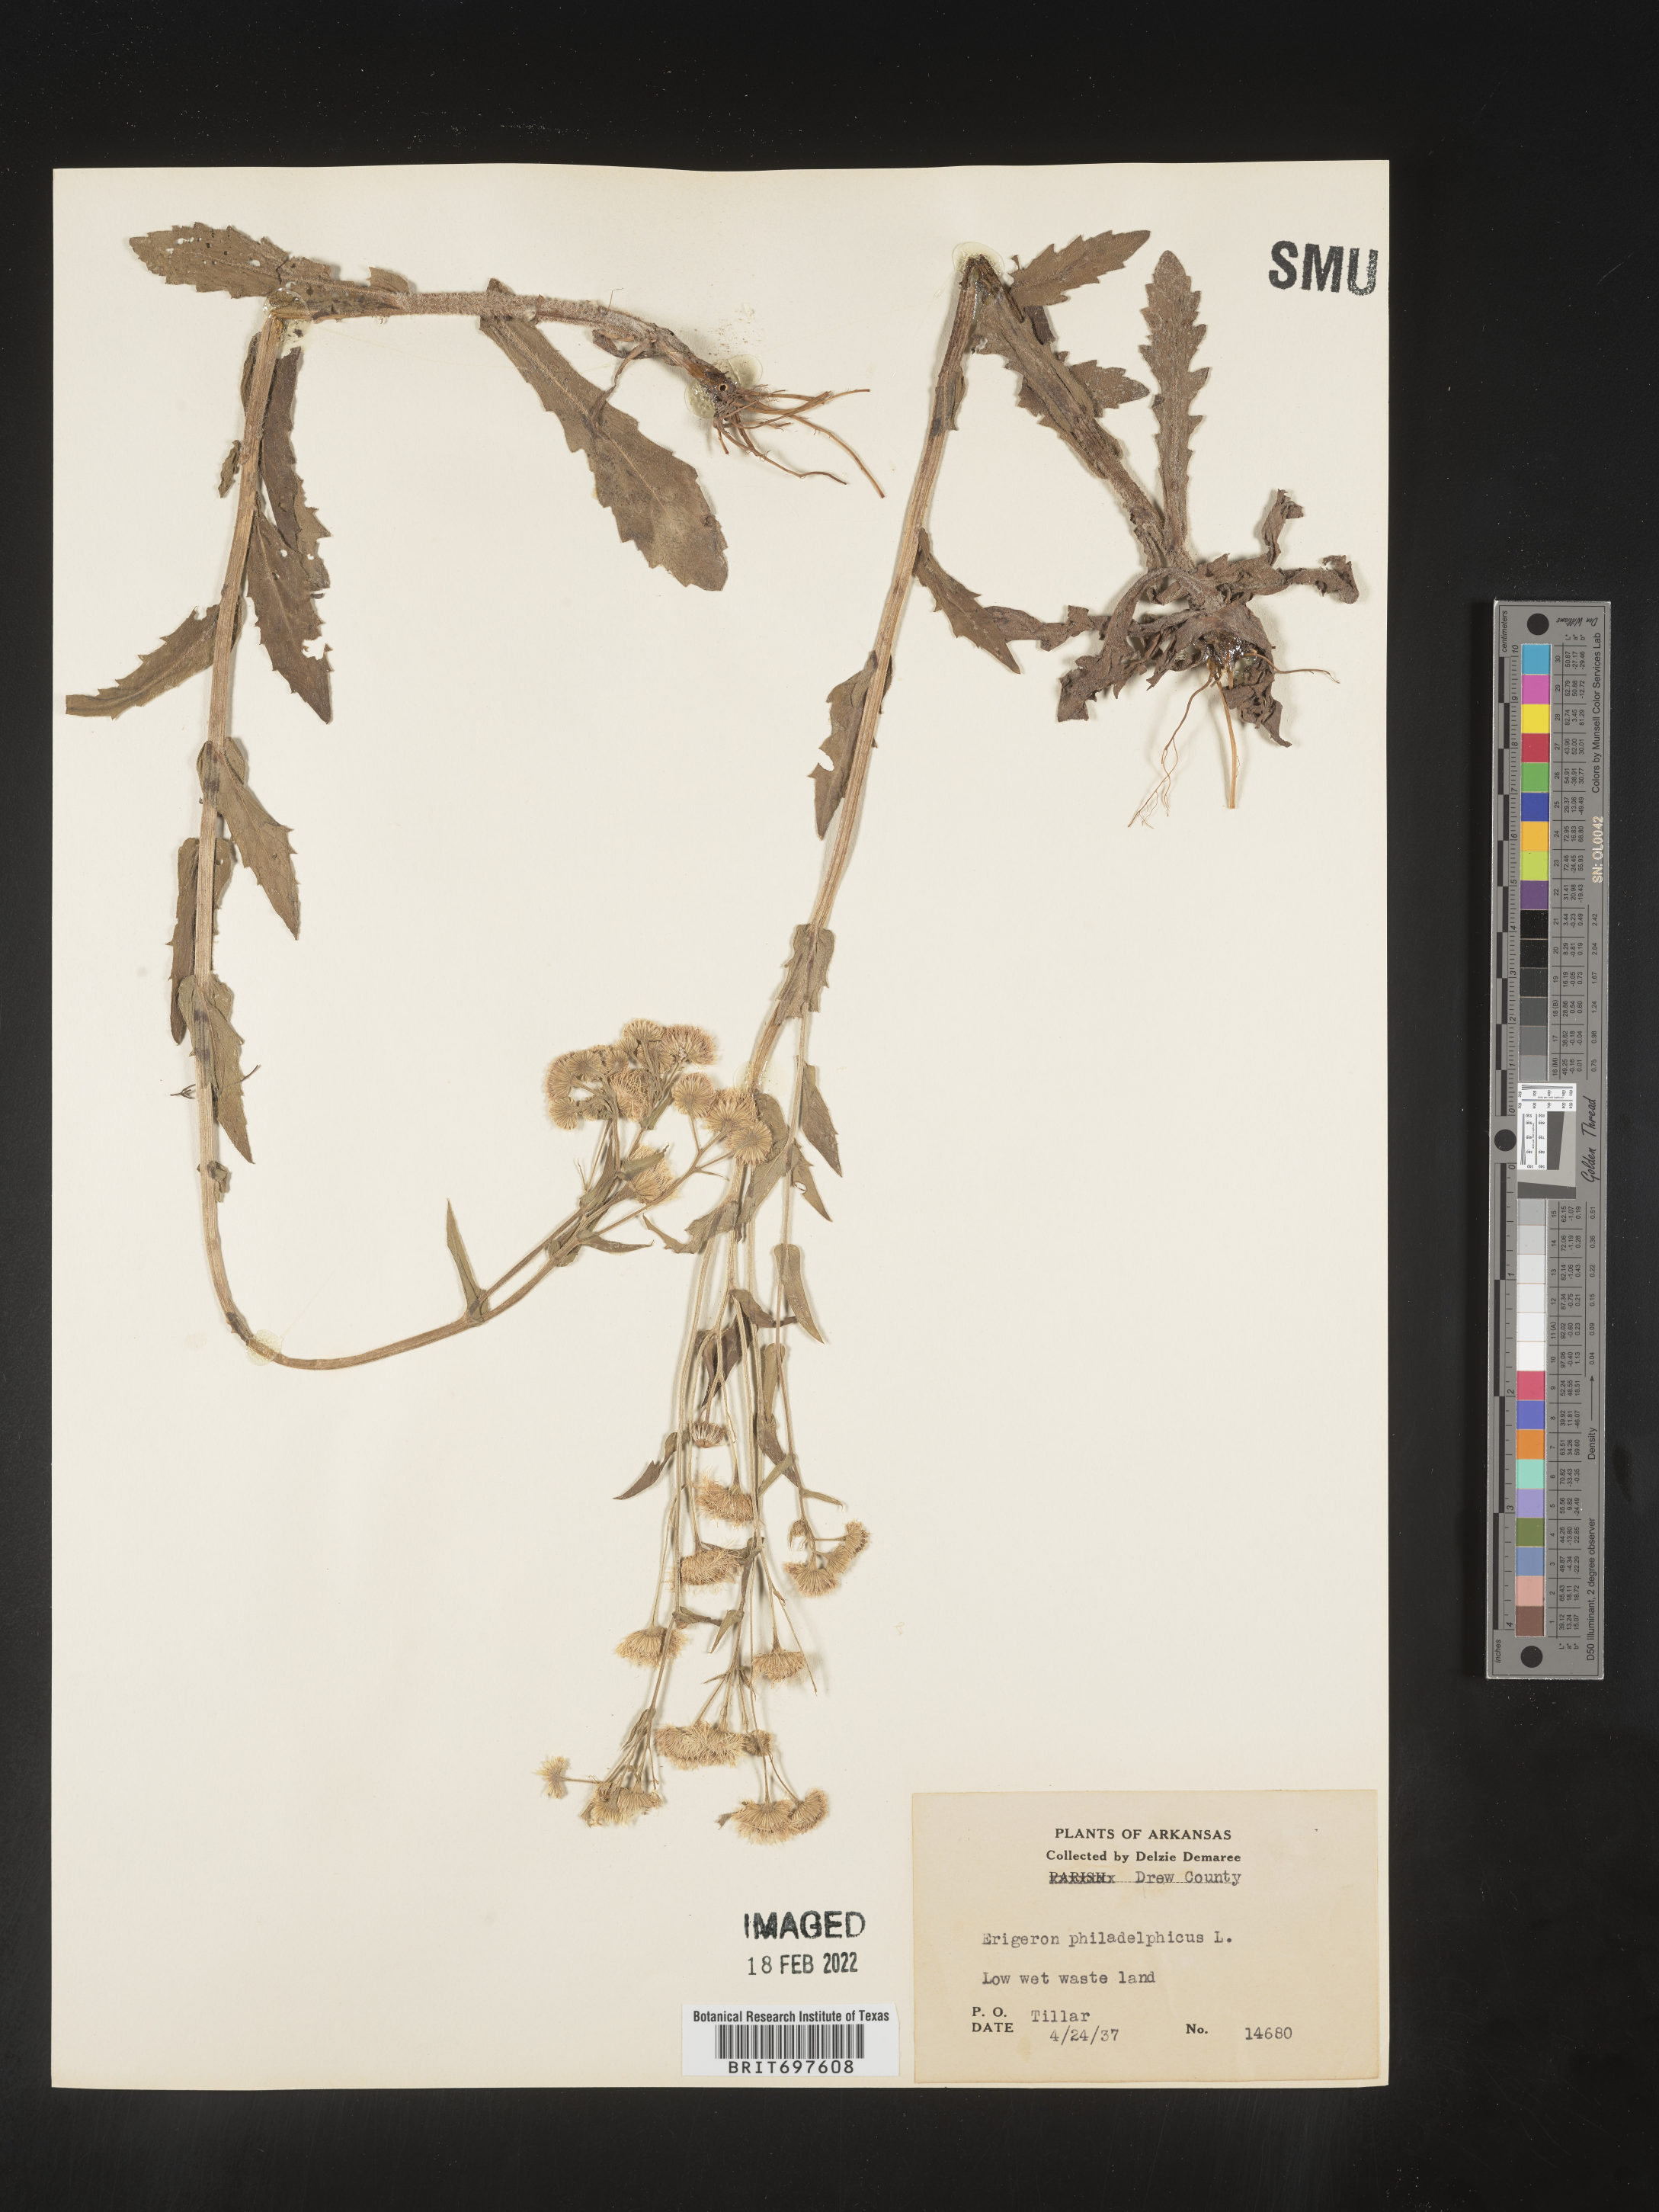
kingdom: Plantae
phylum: Tracheophyta
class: Magnoliopsida
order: Asterales
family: Asteraceae
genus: Erigeron
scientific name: Erigeron philadelphicus
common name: Robin's-plantain
